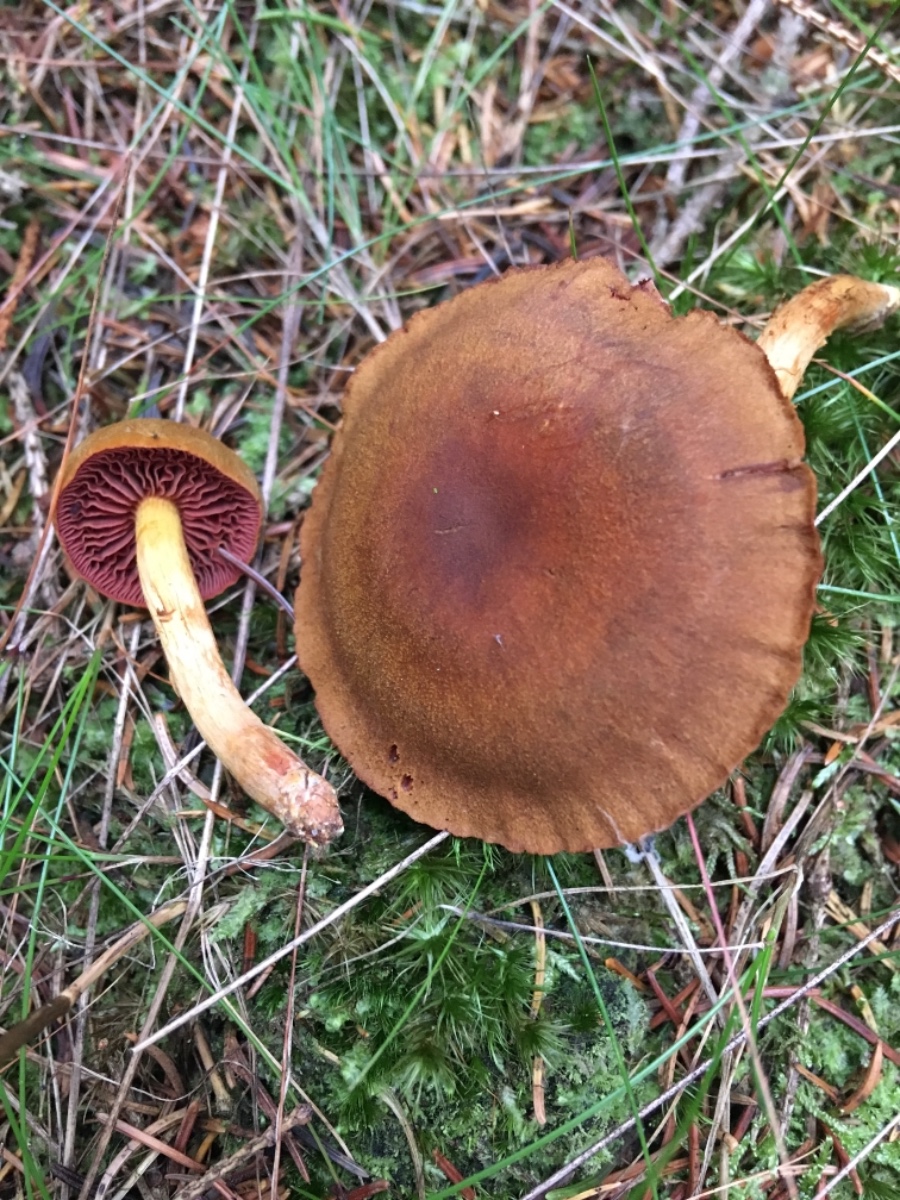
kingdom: Fungi
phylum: Basidiomycota
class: Agaricomycetes
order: Agaricales
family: Cortinariaceae
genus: Cortinarius
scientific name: Cortinarius
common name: cinnoberbladet slørhat
